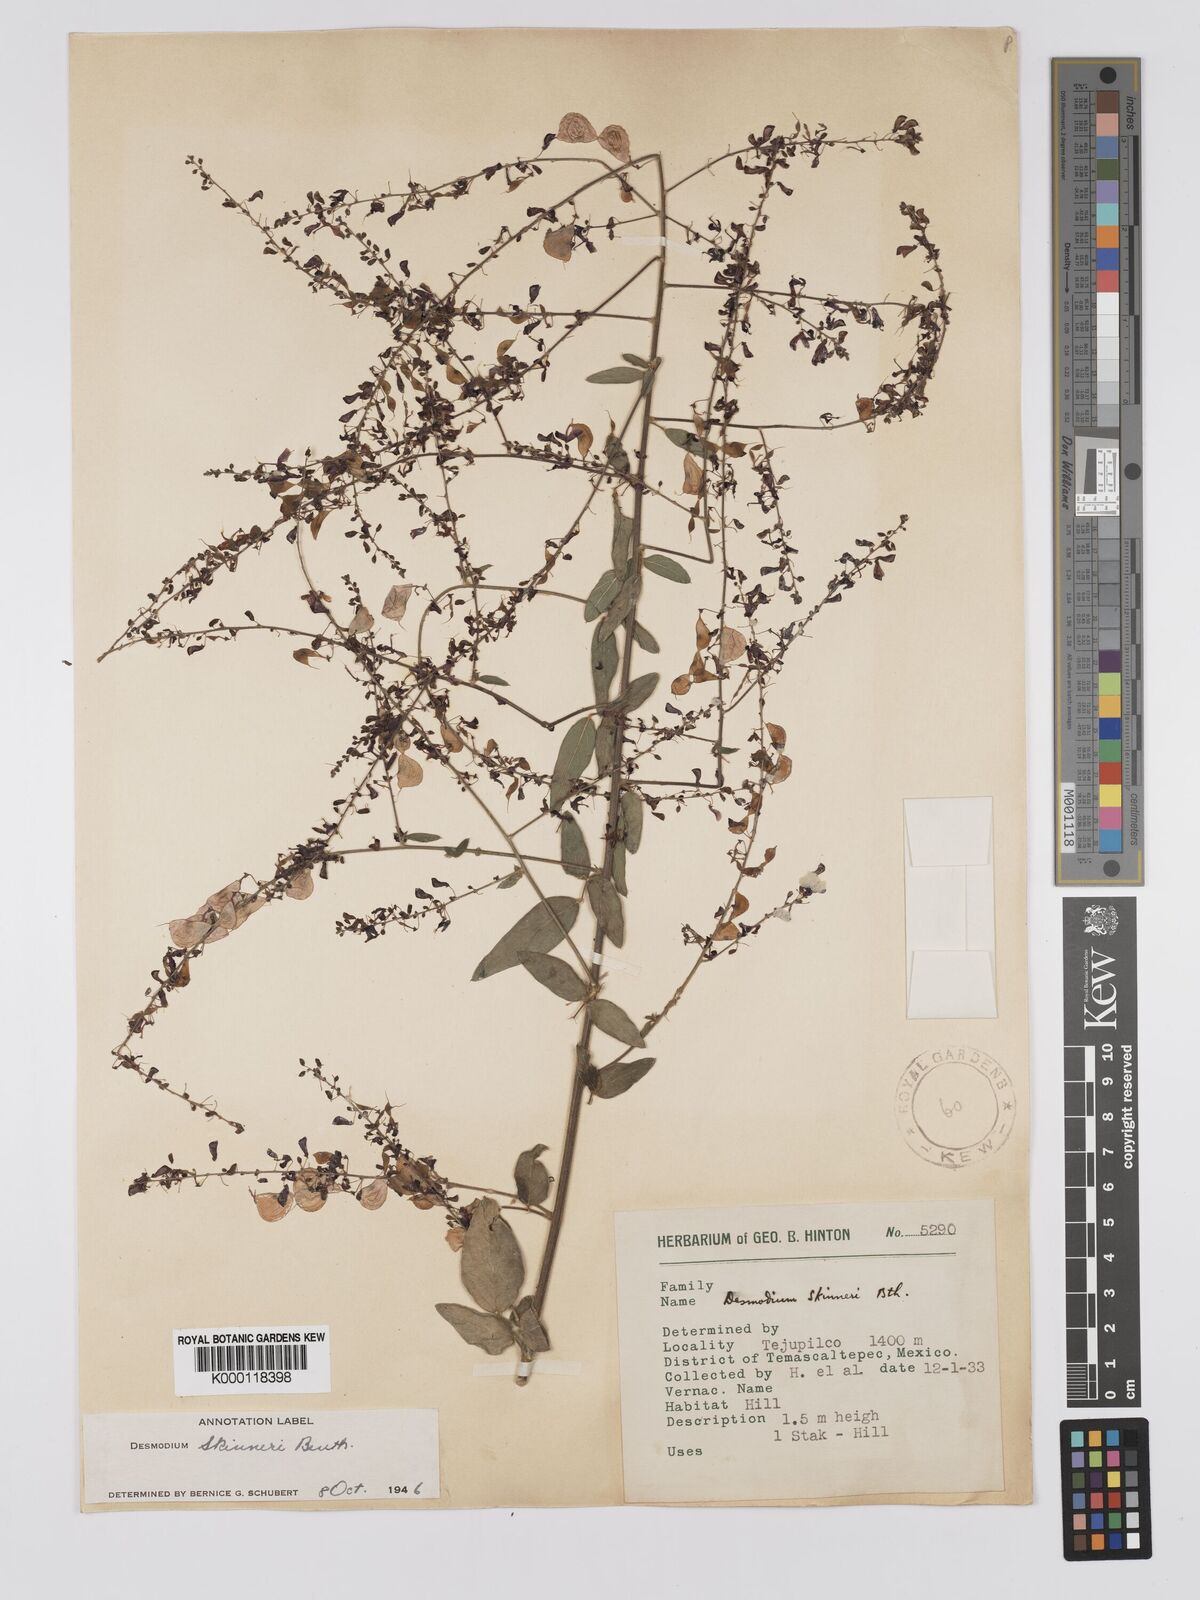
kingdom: Plantae
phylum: Tracheophyta
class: Magnoliopsida
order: Fabales
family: Fabaceae
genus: Desmodium
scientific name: Desmodium skinneri
